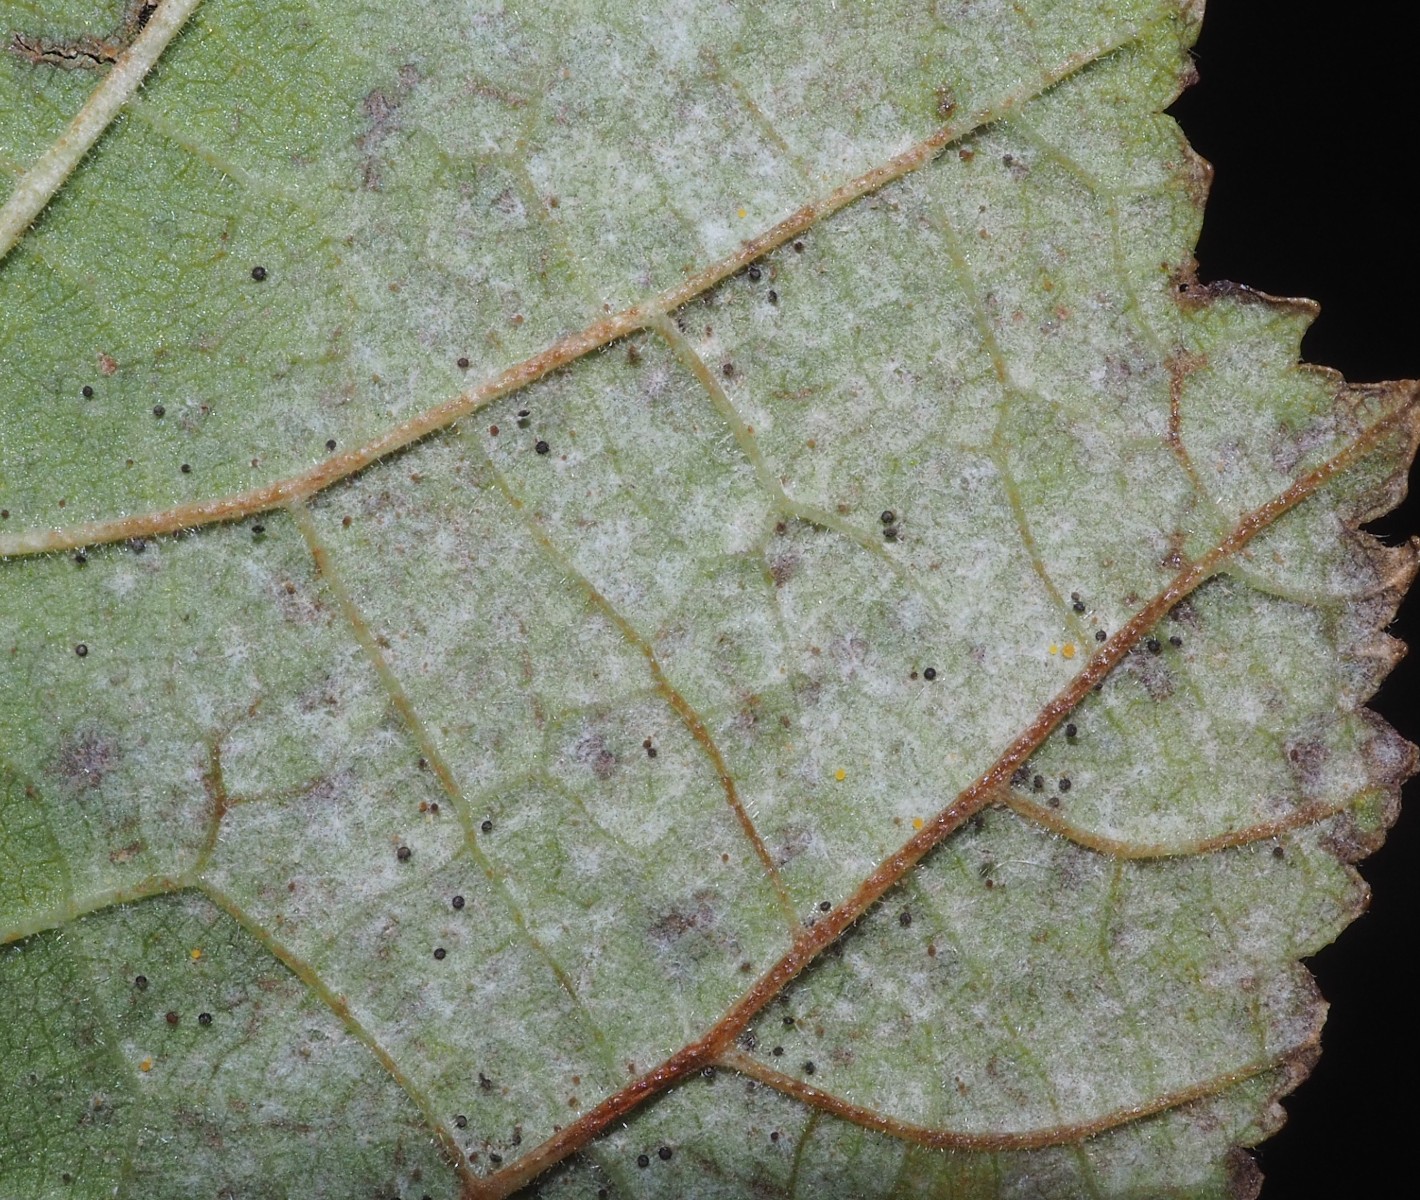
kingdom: Fungi
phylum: Ascomycota
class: Leotiomycetes
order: Helotiales
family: Erysiphaceae
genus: Phyllactinia
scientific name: Phyllactinia guttata
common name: hassel-meldug
